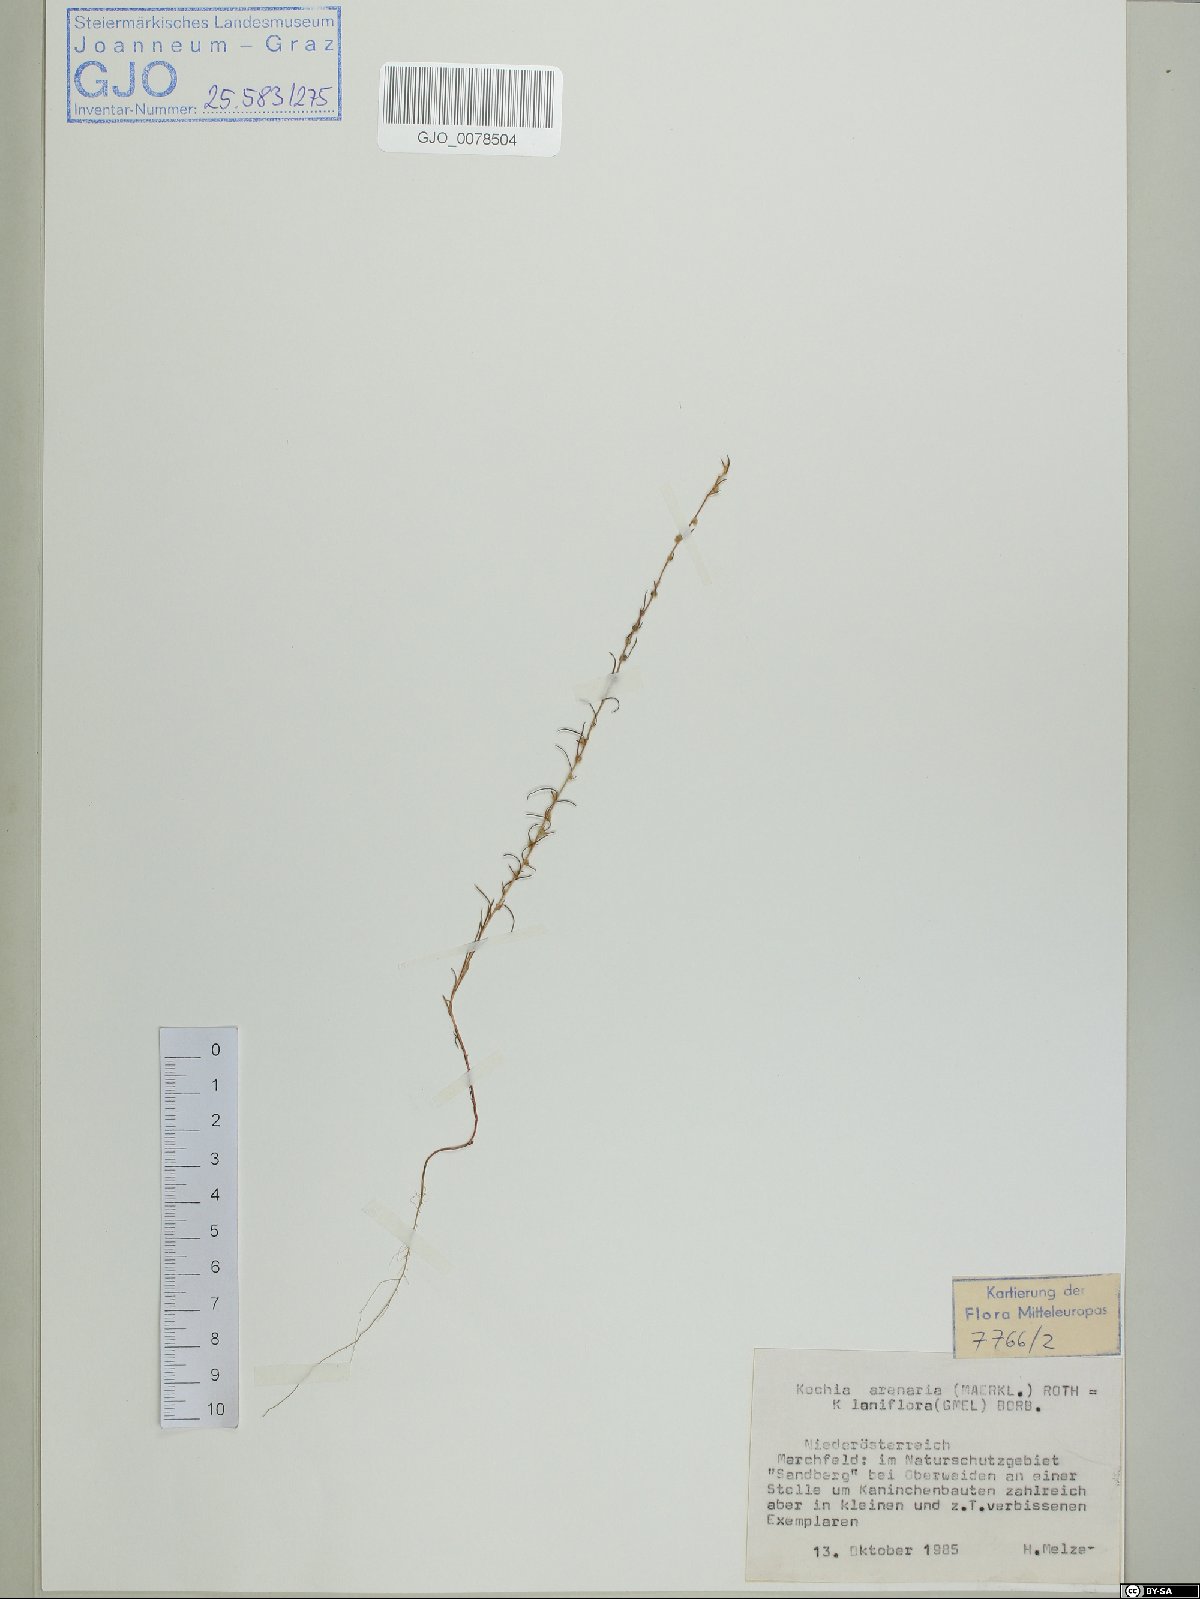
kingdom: Plantae
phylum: Tracheophyta
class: Magnoliopsida
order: Caryophyllales
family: Amaranthaceae
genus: Bassia
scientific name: Bassia laniflora
